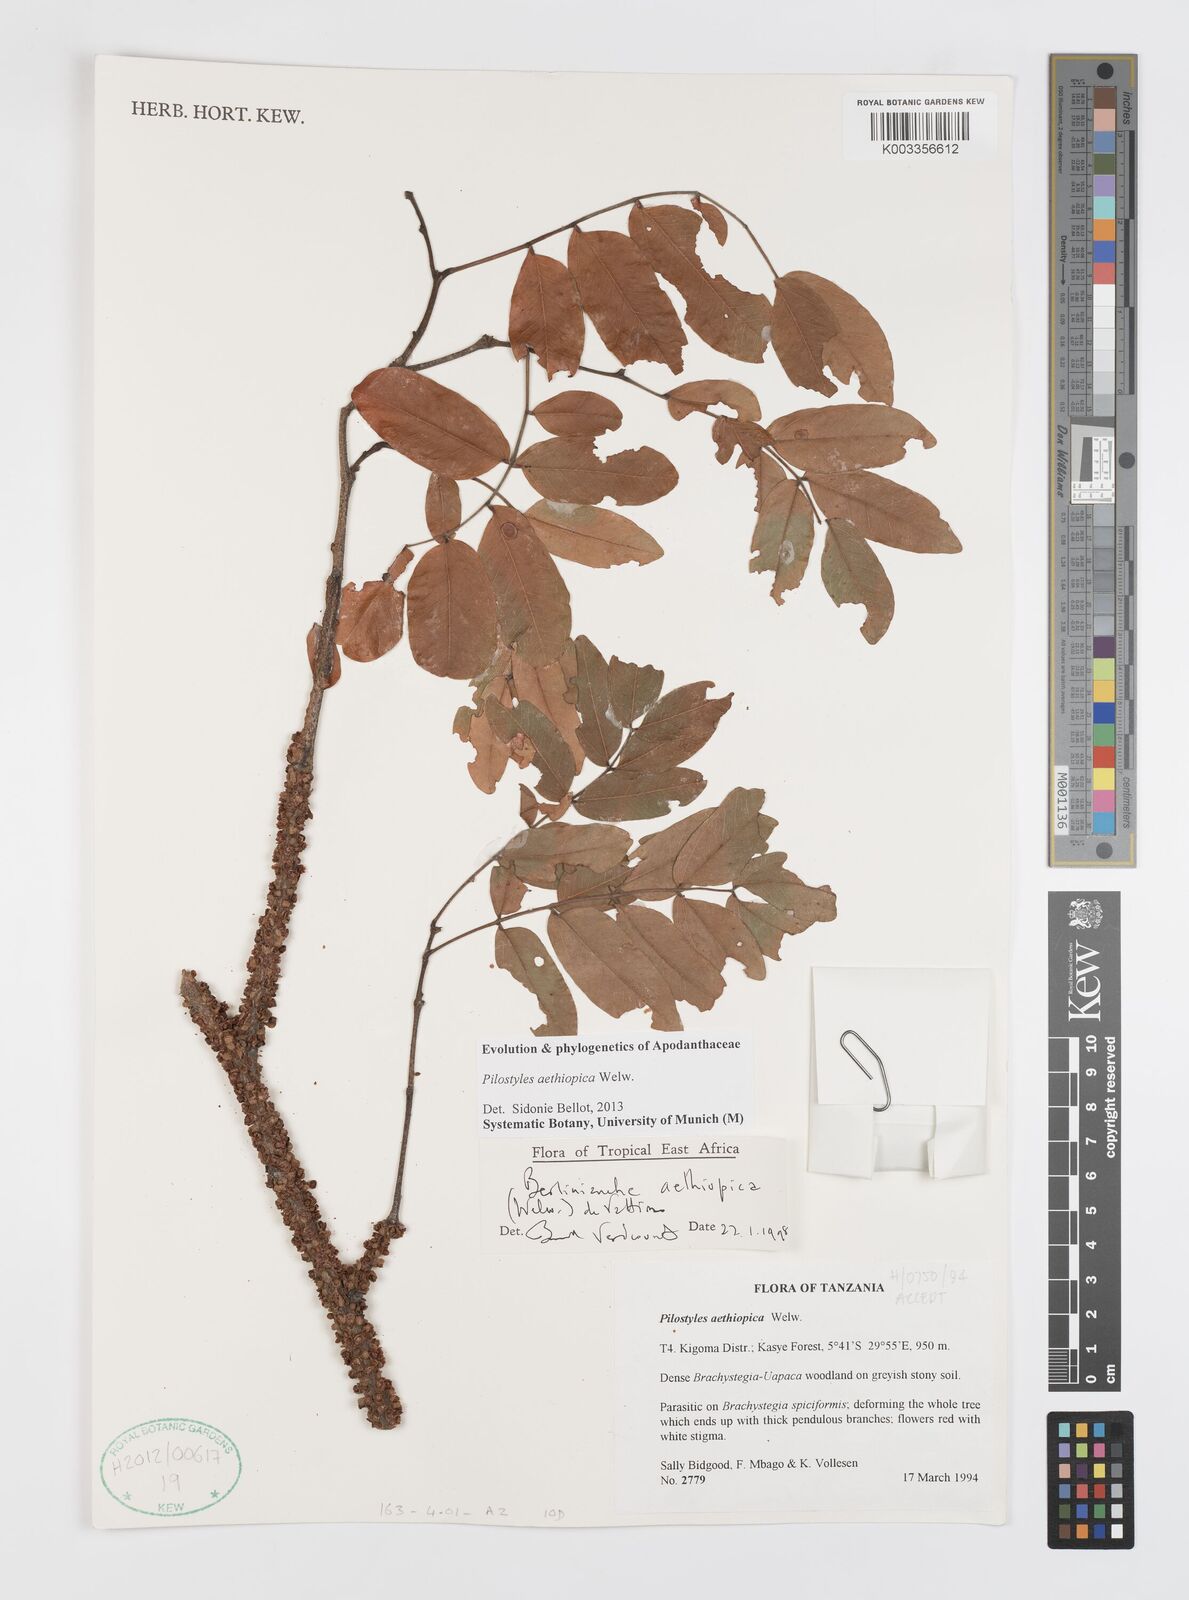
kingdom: Plantae
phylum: Tracheophyta
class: Magnoliopsida
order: Cucurbitales
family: Apodanthaceae
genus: Pilostyles
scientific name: Pilostyles aethiopica
